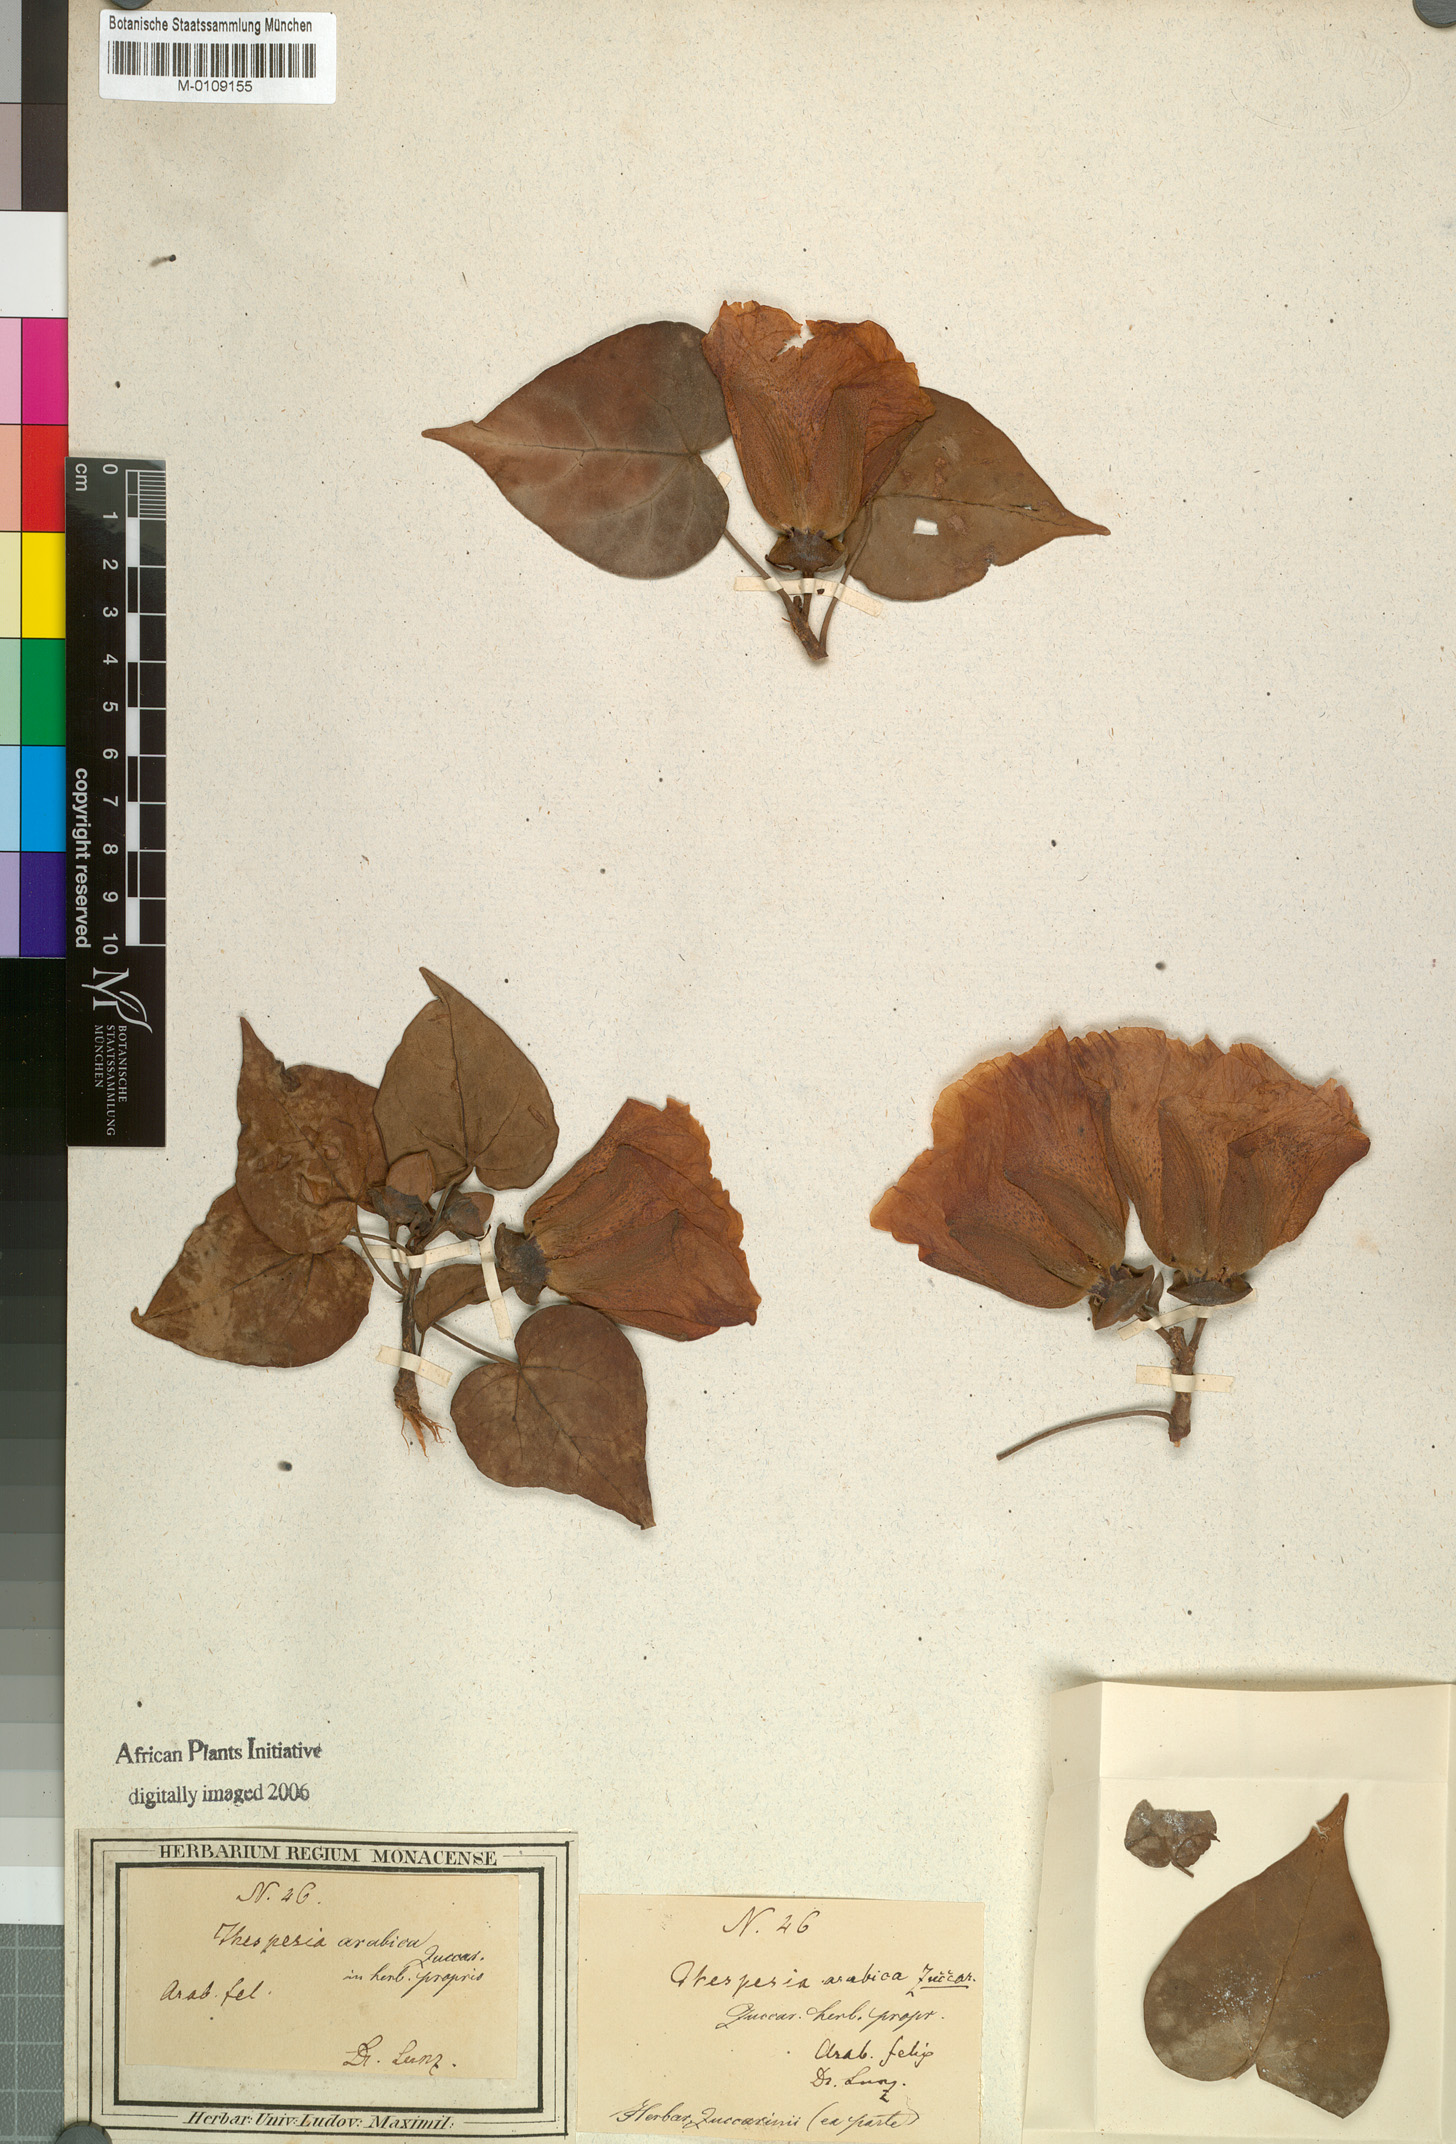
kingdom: Plantae
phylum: Tracheophyta
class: Magnoliopsida
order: Malvales
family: Malvaceae
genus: Thespesia
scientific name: Thespesia
